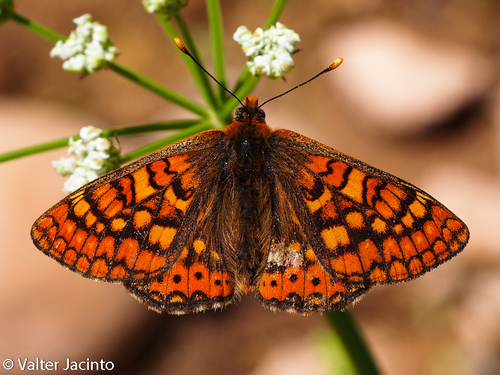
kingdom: Animalia
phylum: Arthropoda
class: Insecta
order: Lepidoptera
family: Nymphalidae
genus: Euphydryas
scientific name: Euphydryas aurinia
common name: Marsh fritillary
